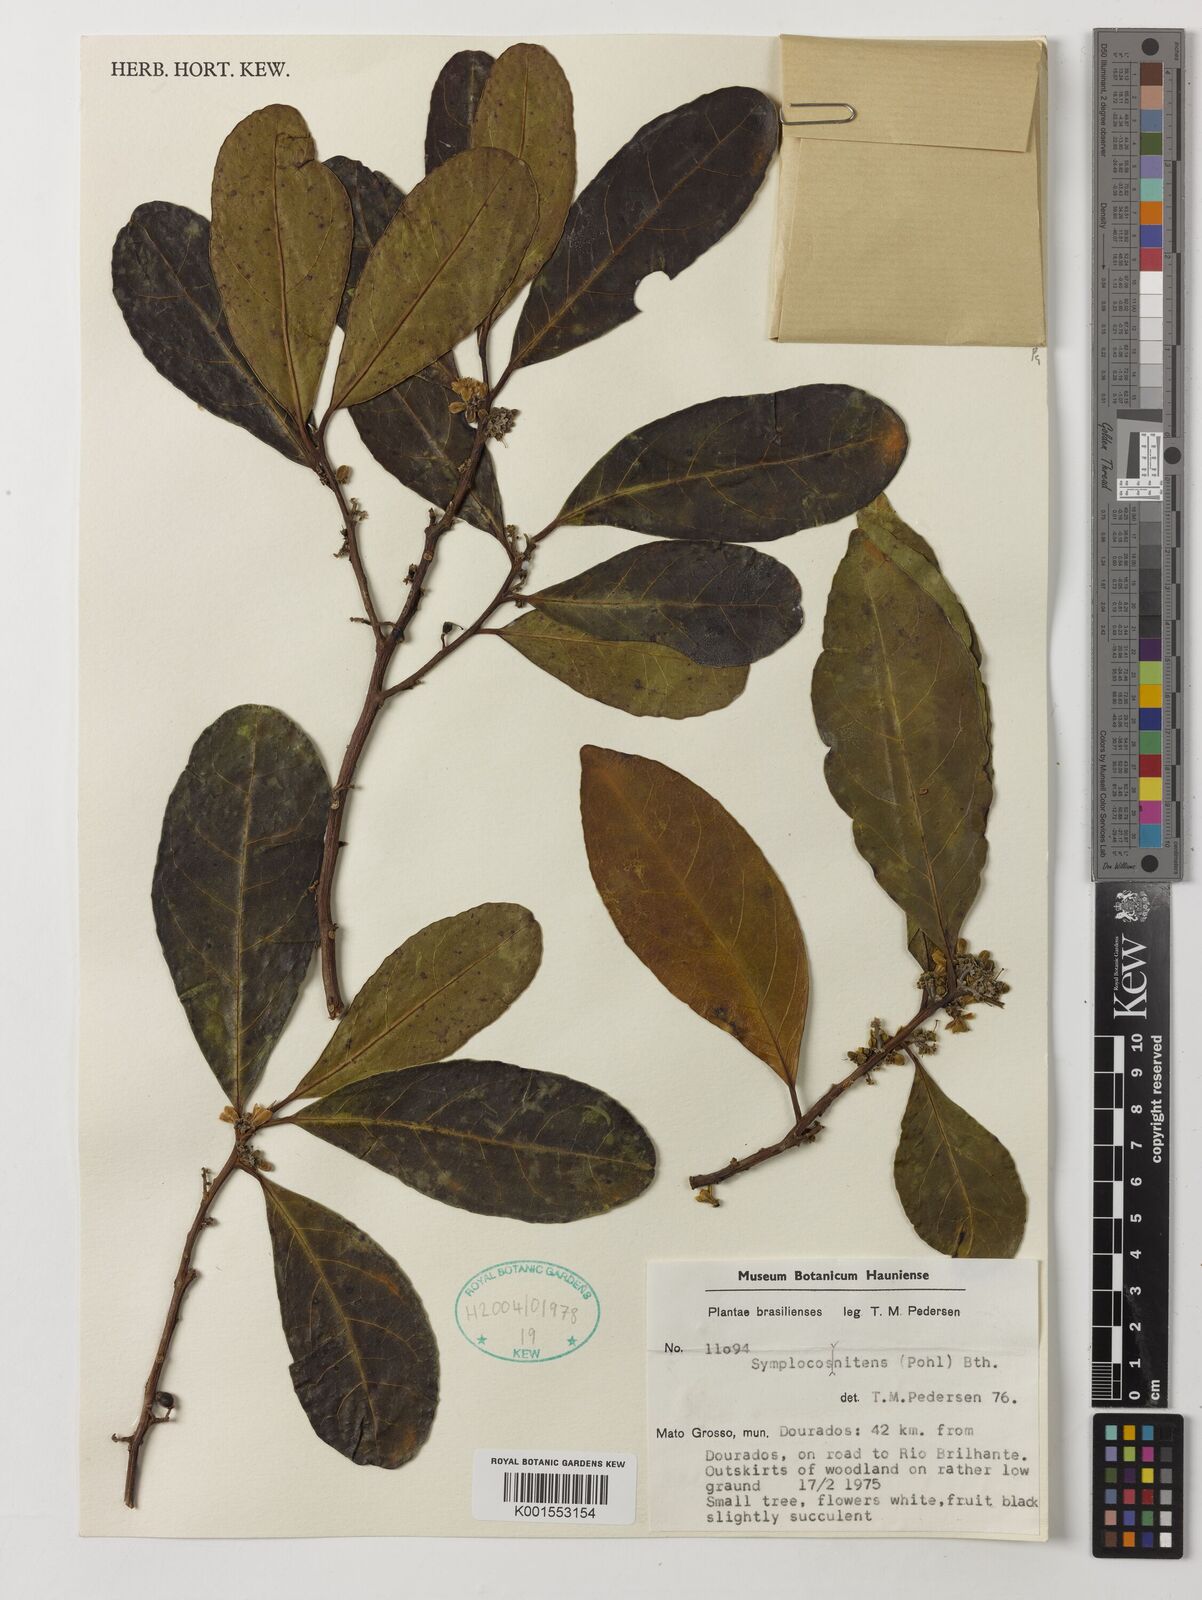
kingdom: Plantae
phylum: Tracheophyta
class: Magnoliopsida
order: Ericales
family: Symplocaceae
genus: Symplocos
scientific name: Symplocos nitens
